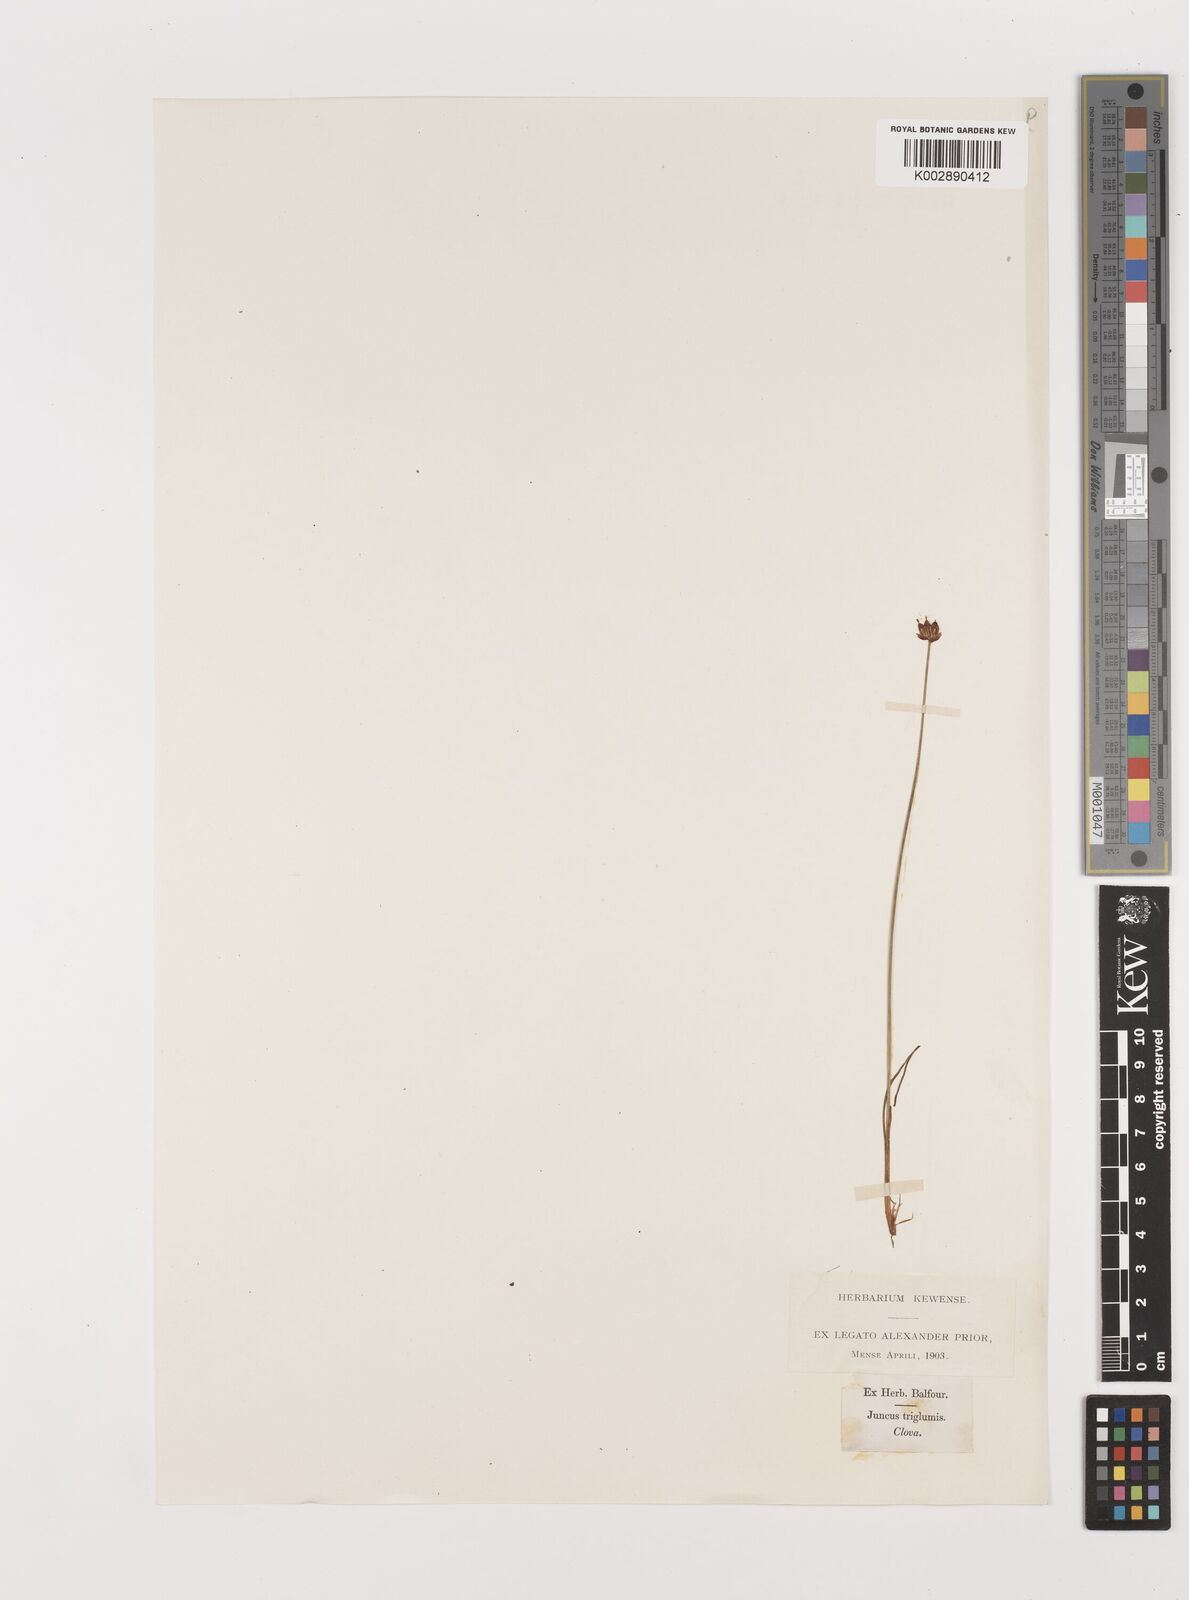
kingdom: Plantae
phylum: Tracheophyta
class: Liliopsida
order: Poales
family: Juncaceae
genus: Juncus
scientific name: Juncus triglumis
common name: Three-flowered rush
